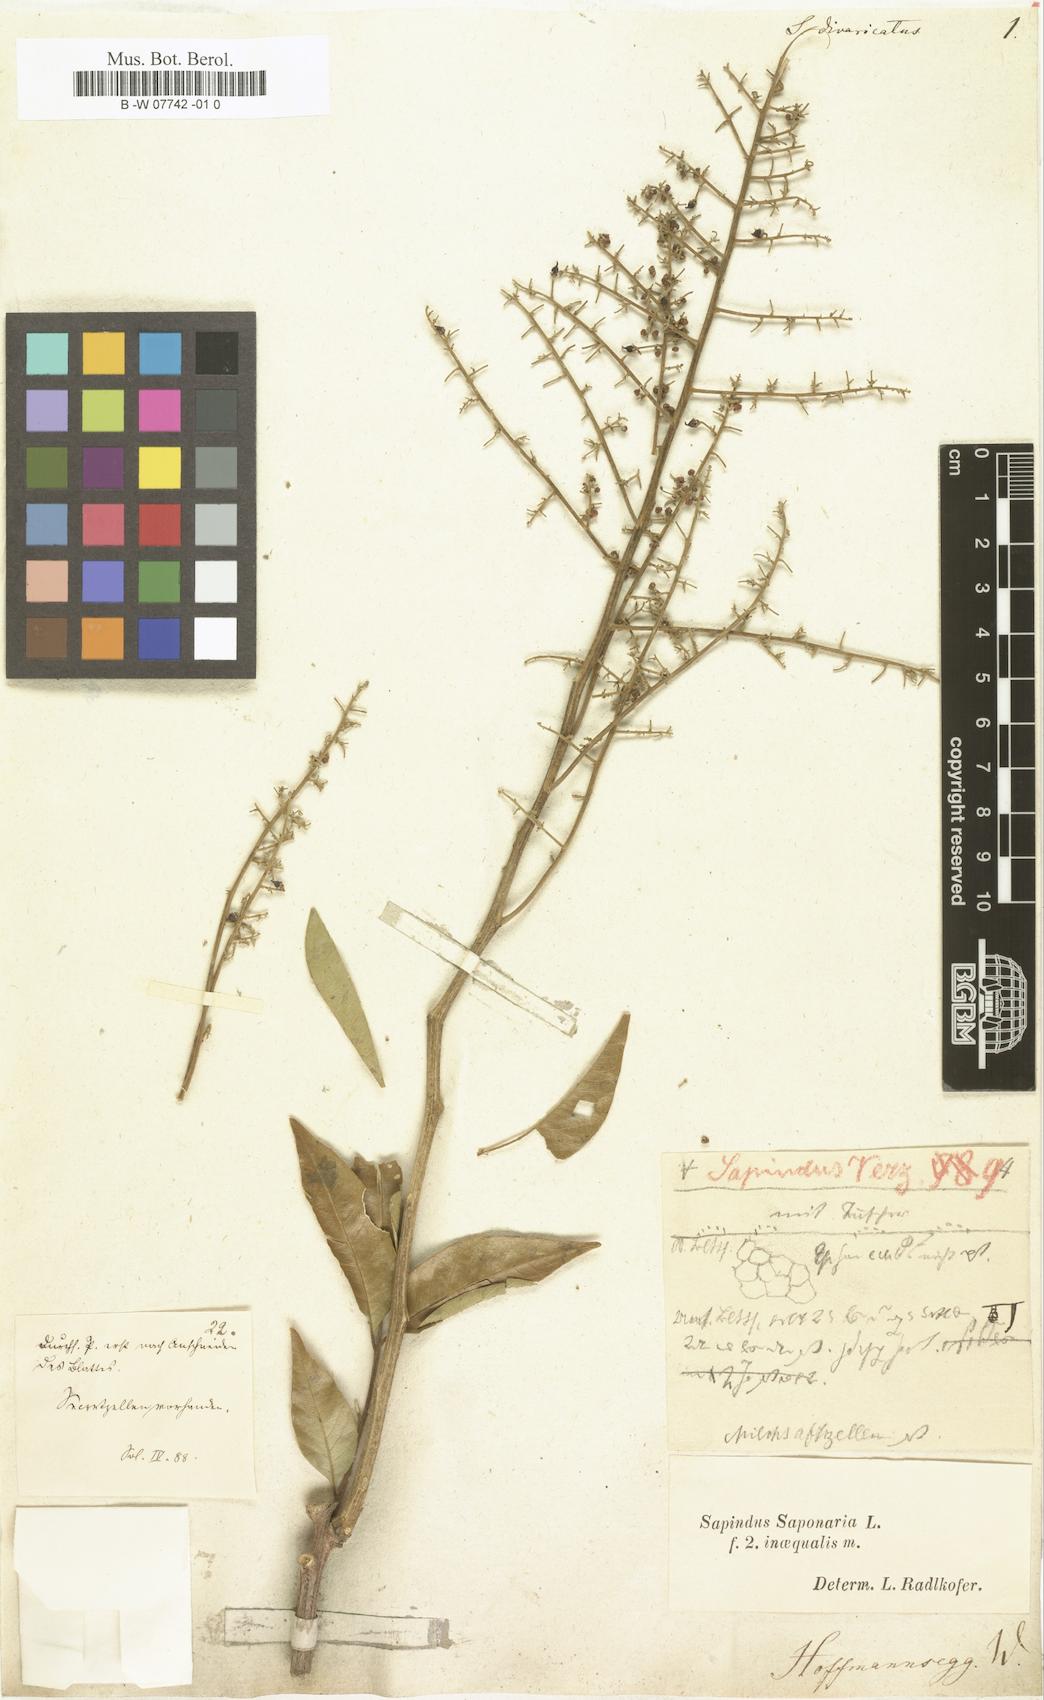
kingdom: Plantae
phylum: Tracheophyta
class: Magnoliopsida
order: Sapindales
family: Sapindaceae
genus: Sapindus
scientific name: Sapindus saponaria
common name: Wingleaf soapberry
